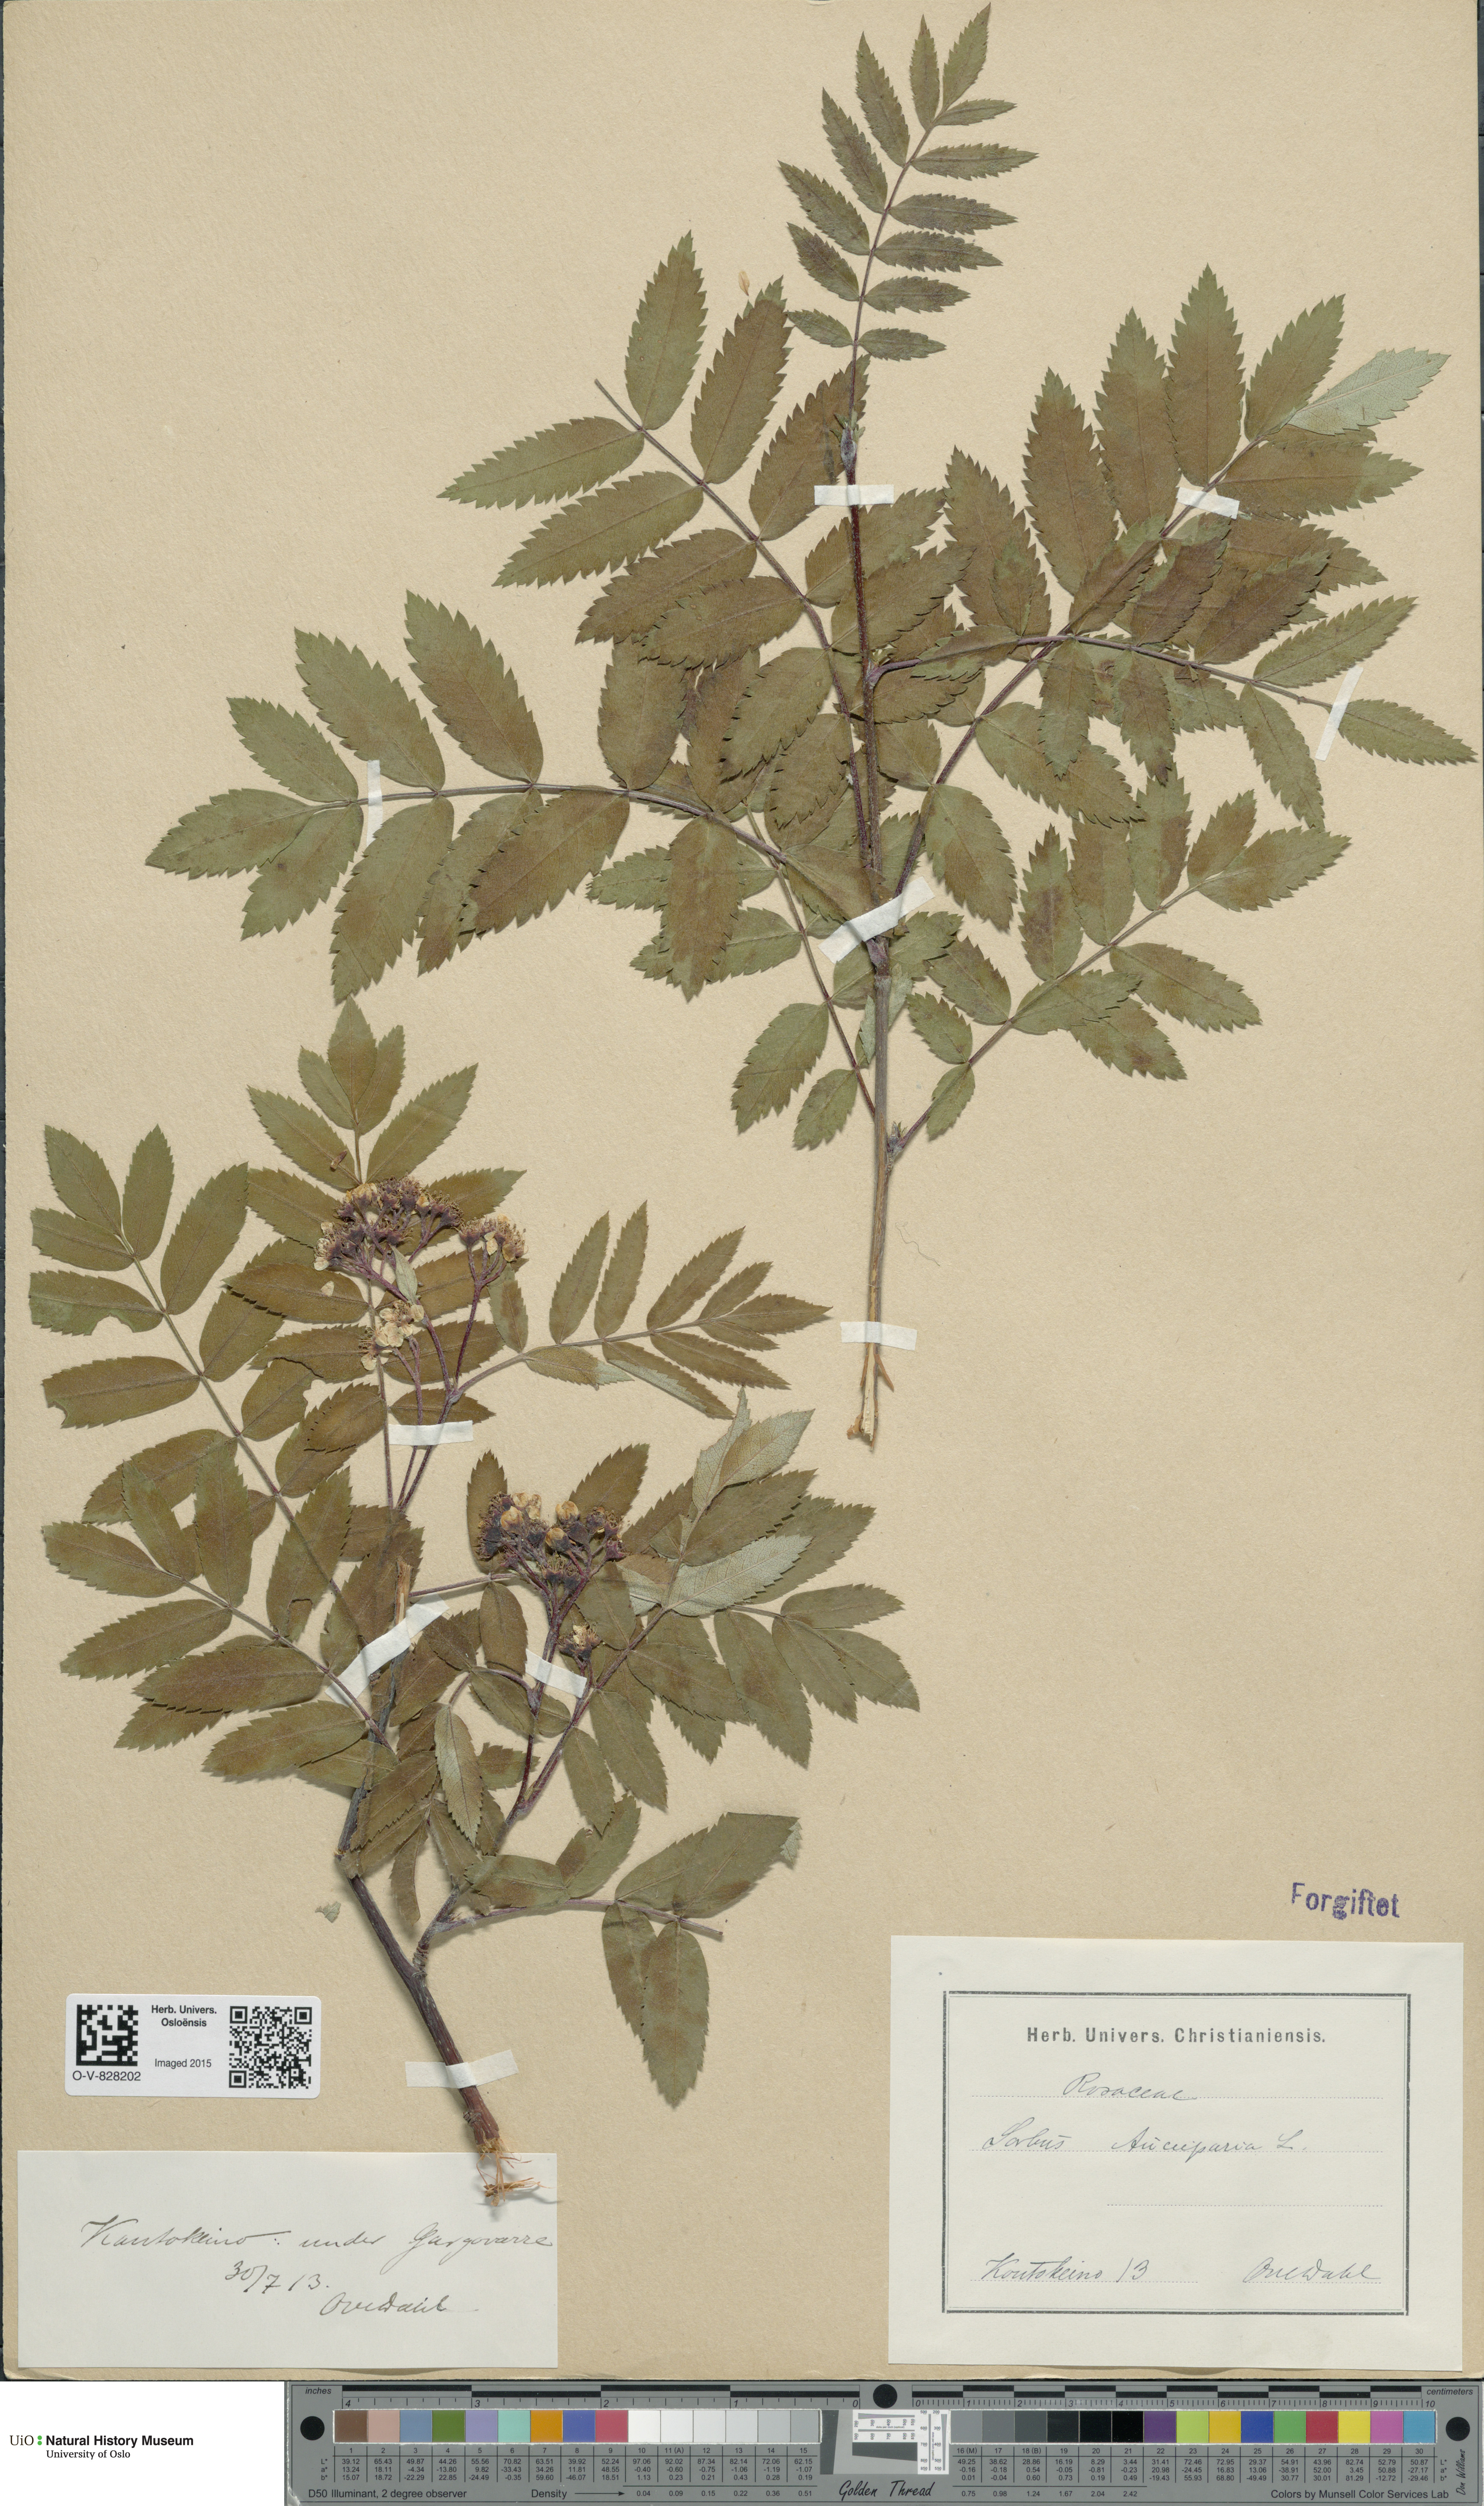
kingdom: Plantae
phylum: Tracheophyta
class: Magnoliopsida
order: Rosales
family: Rosaceae
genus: Sorbus
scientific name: Sorbus aucuparia
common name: Rowan
